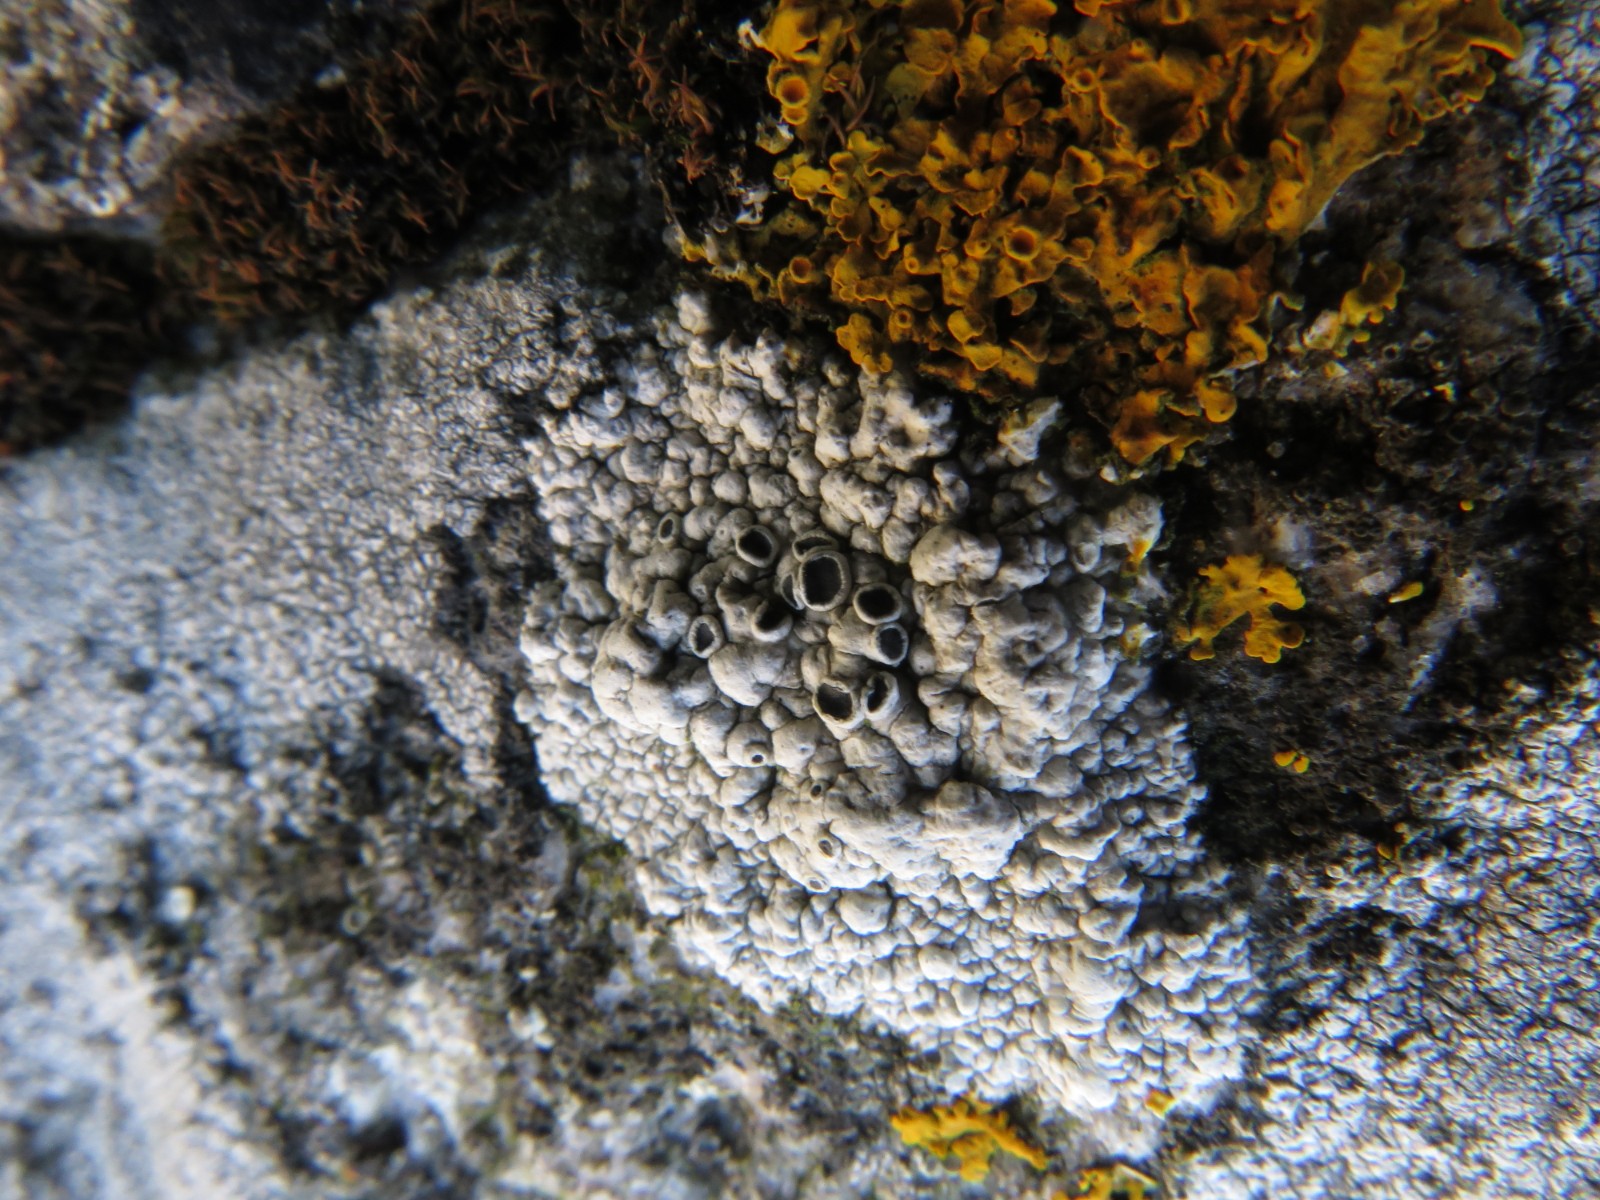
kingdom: Fungi
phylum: Ascomycota
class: Lecanoromycetes
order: Lecanorales
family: Tephromelataceae
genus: Tephromela
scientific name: Tephromela atra
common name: sortfrugtet kantskivelav
